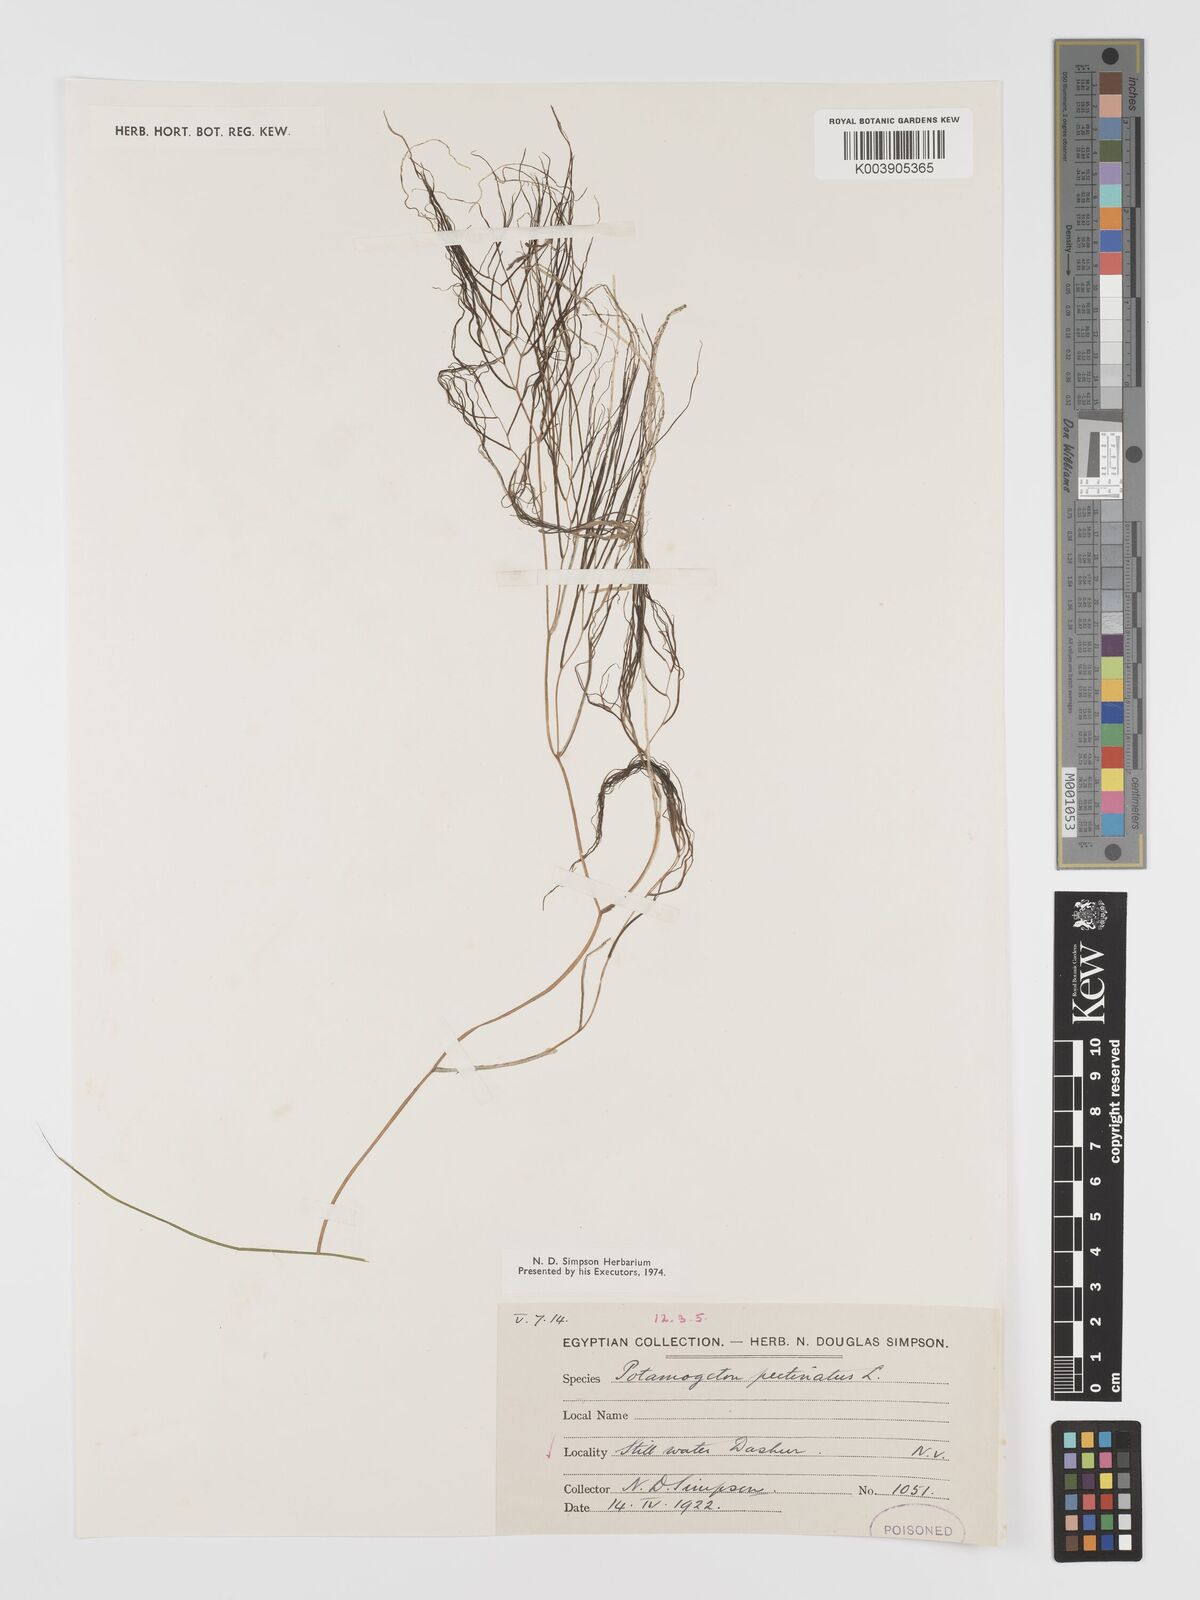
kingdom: Plantae
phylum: Tracheophyta
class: Liliopsida
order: Alismatales
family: Potamogetonaceae
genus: Stuckenia
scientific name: Stuckenia pectinata
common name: Sago pondweed
